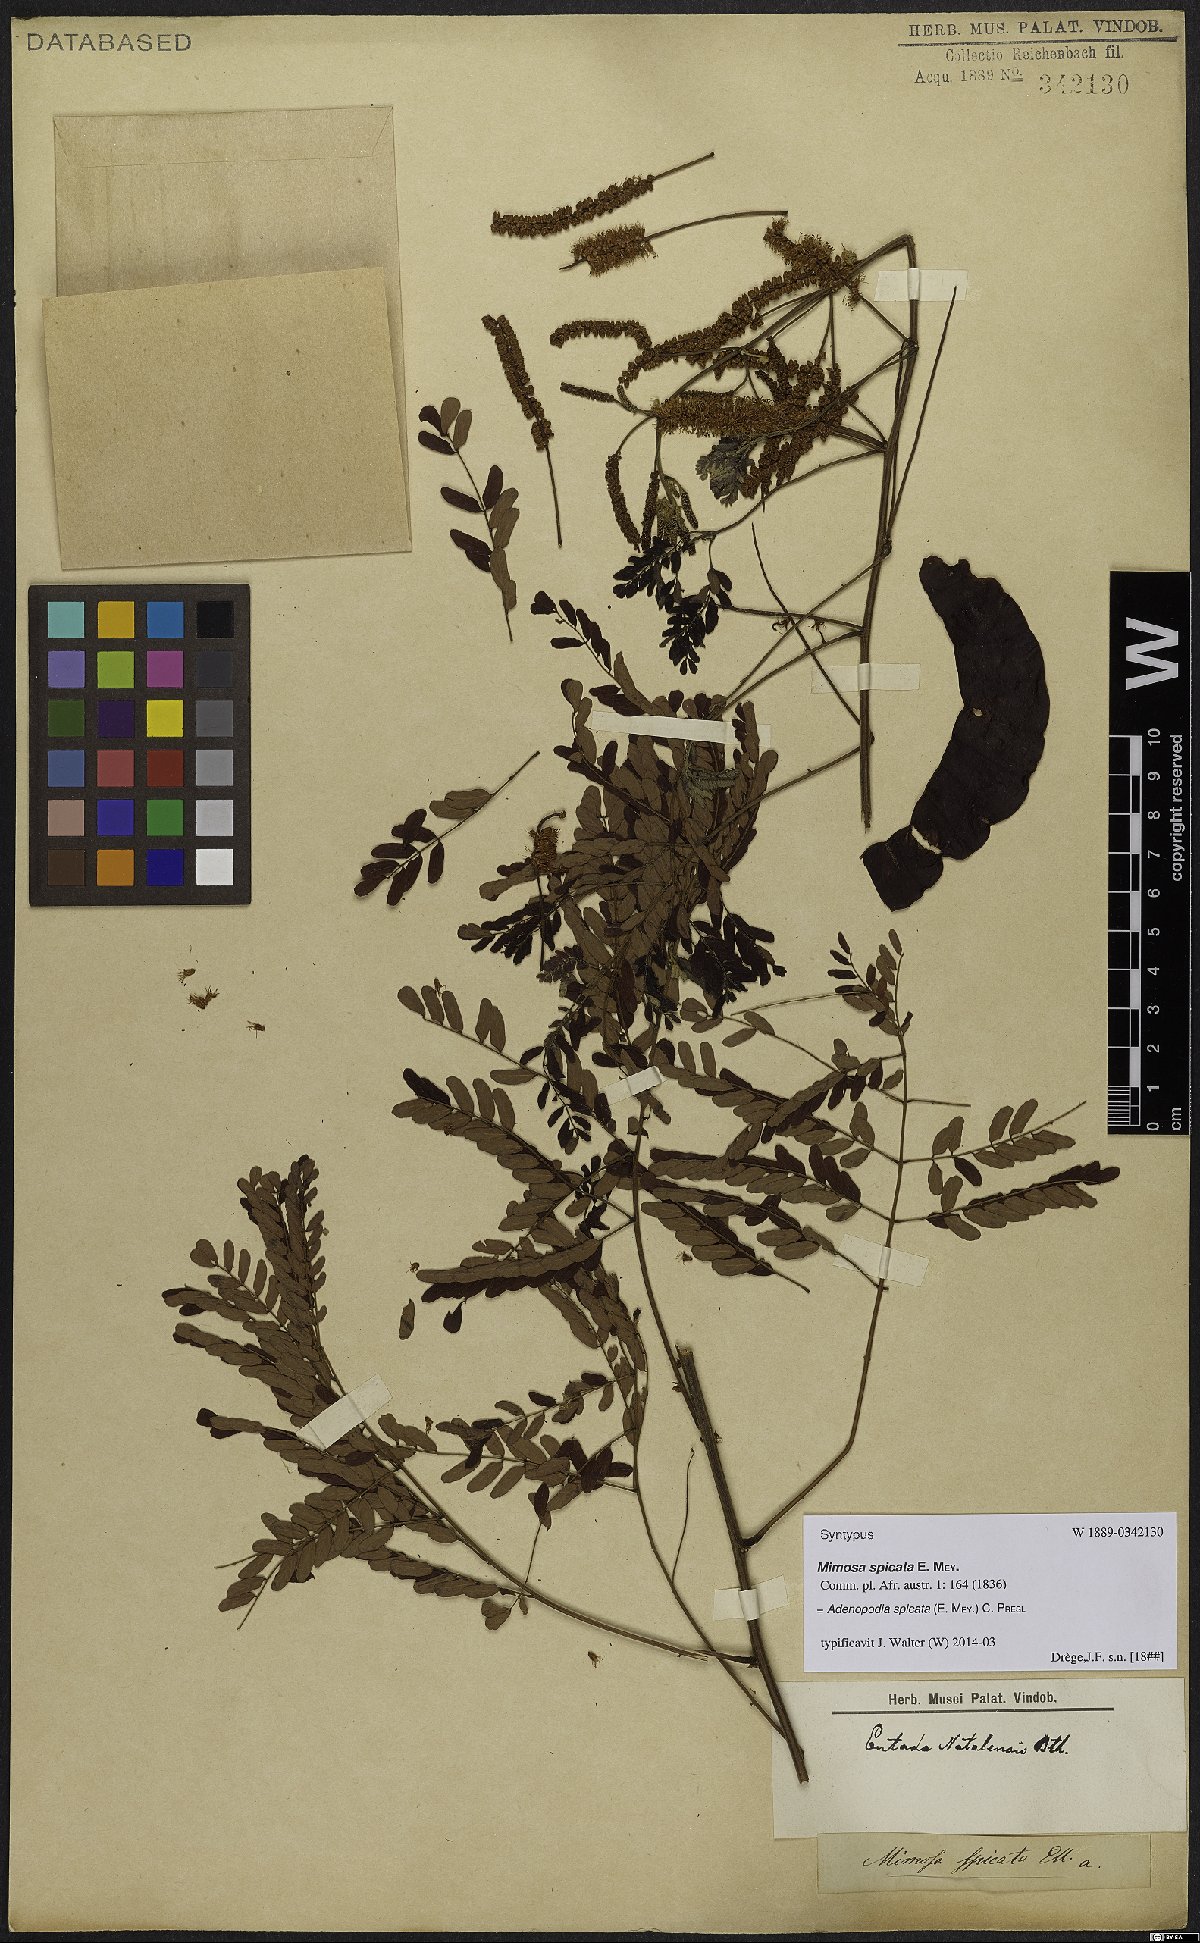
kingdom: Plantae
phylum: Tracheophyta
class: Magnoliopsida
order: Fabales
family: Fabaceae
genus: Adenopodia
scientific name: Adenopodia spicata
